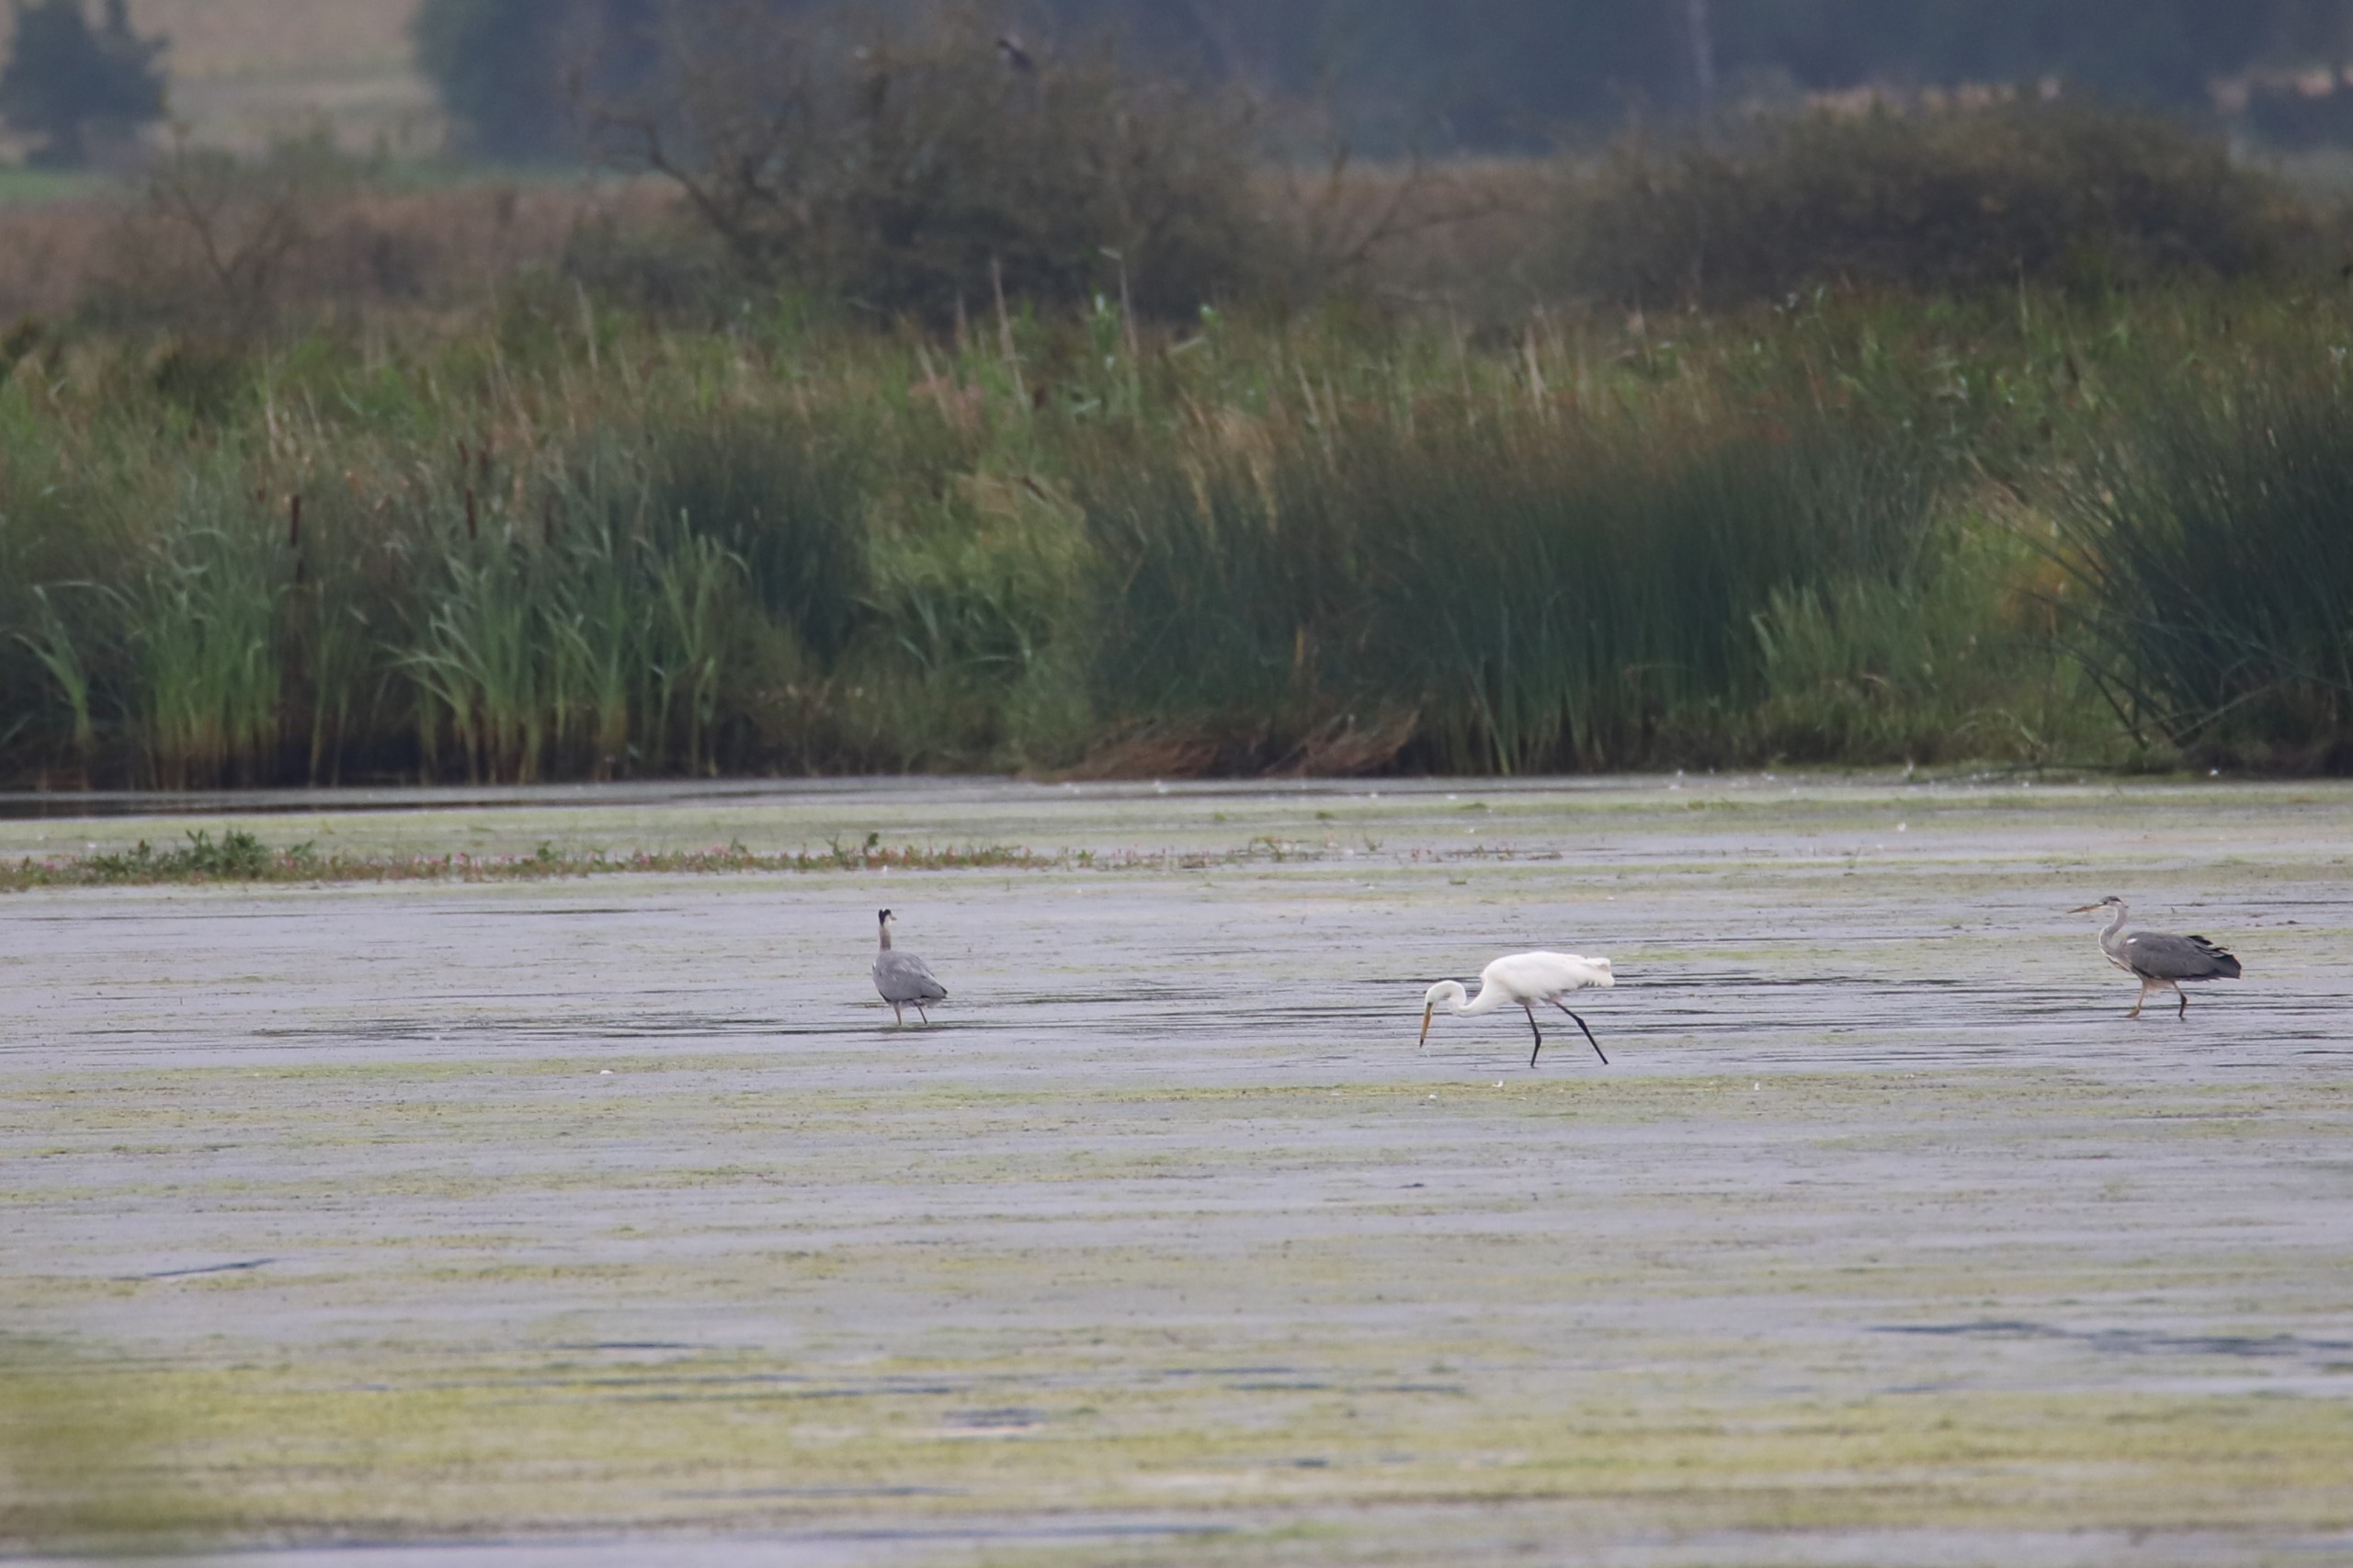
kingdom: Animalia
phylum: Chordata
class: Aves
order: Pelecaniformes
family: Ardeidae
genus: Ardea
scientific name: Ardea alba
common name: Sølvhejre
